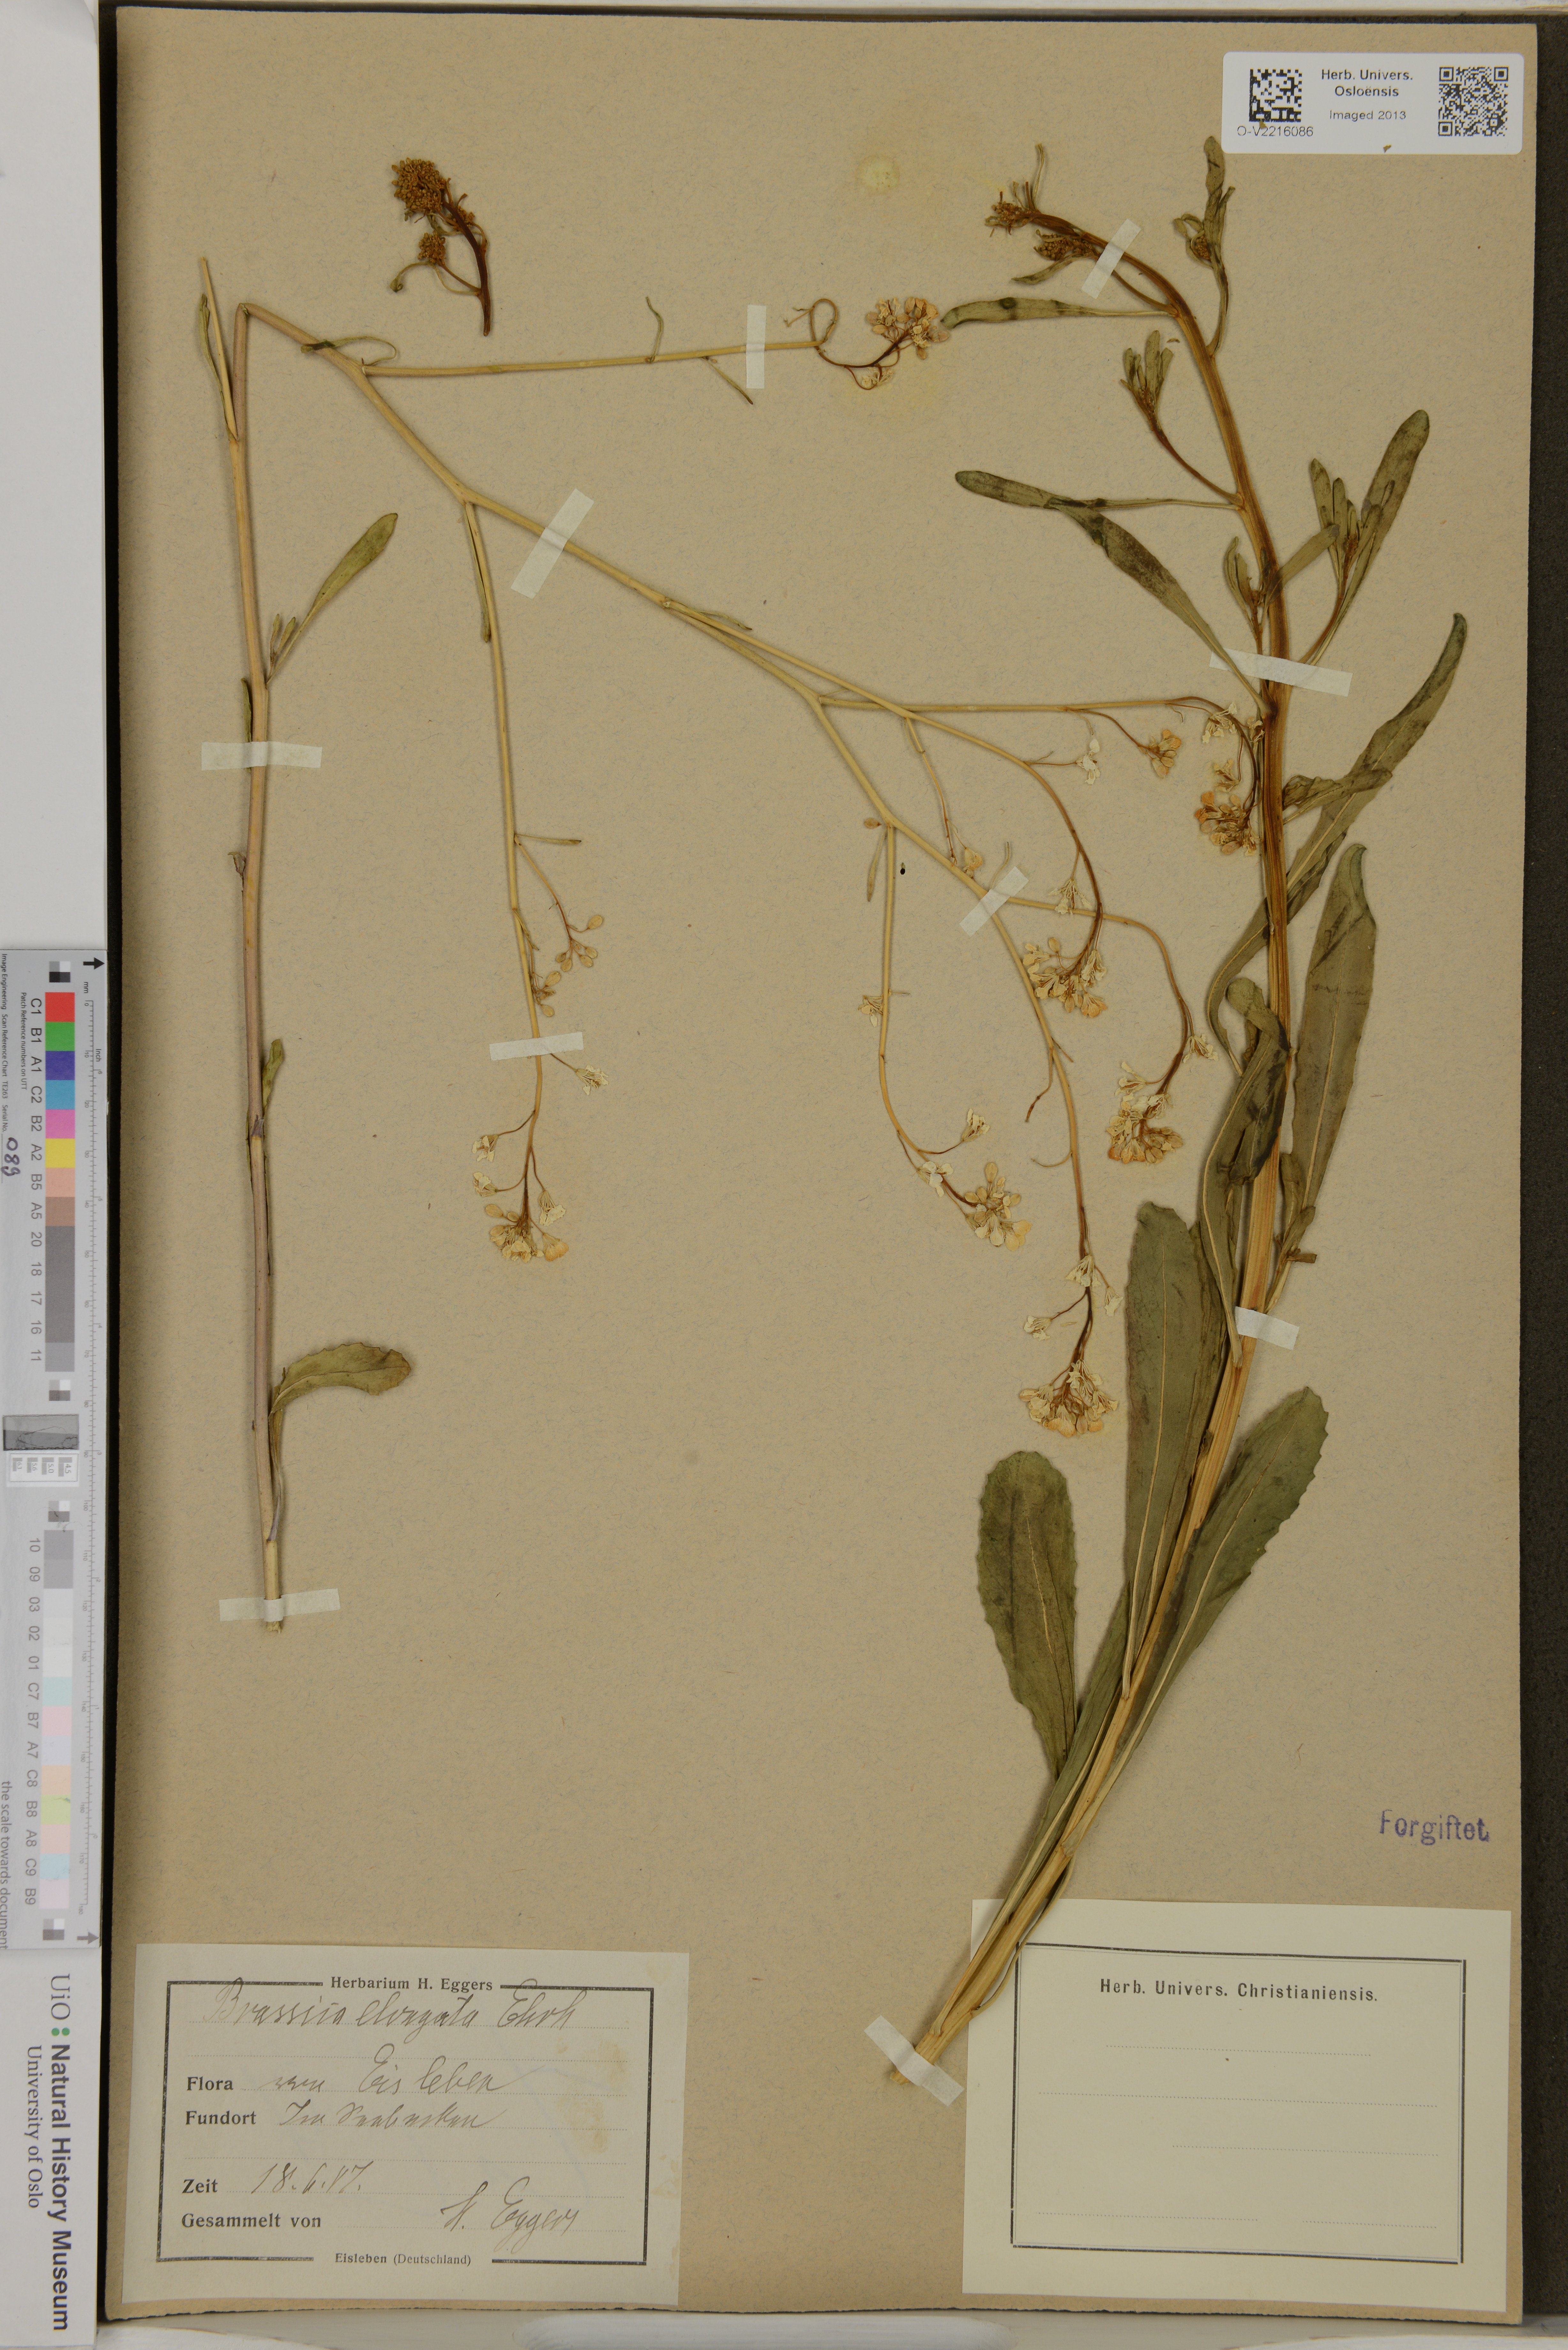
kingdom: Plantae
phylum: Tracheophyta
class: Magnoliopsida
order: Brassicales
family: Brassicaceae
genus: Brassica
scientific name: Brassica elongata
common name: Long-stalked rape
